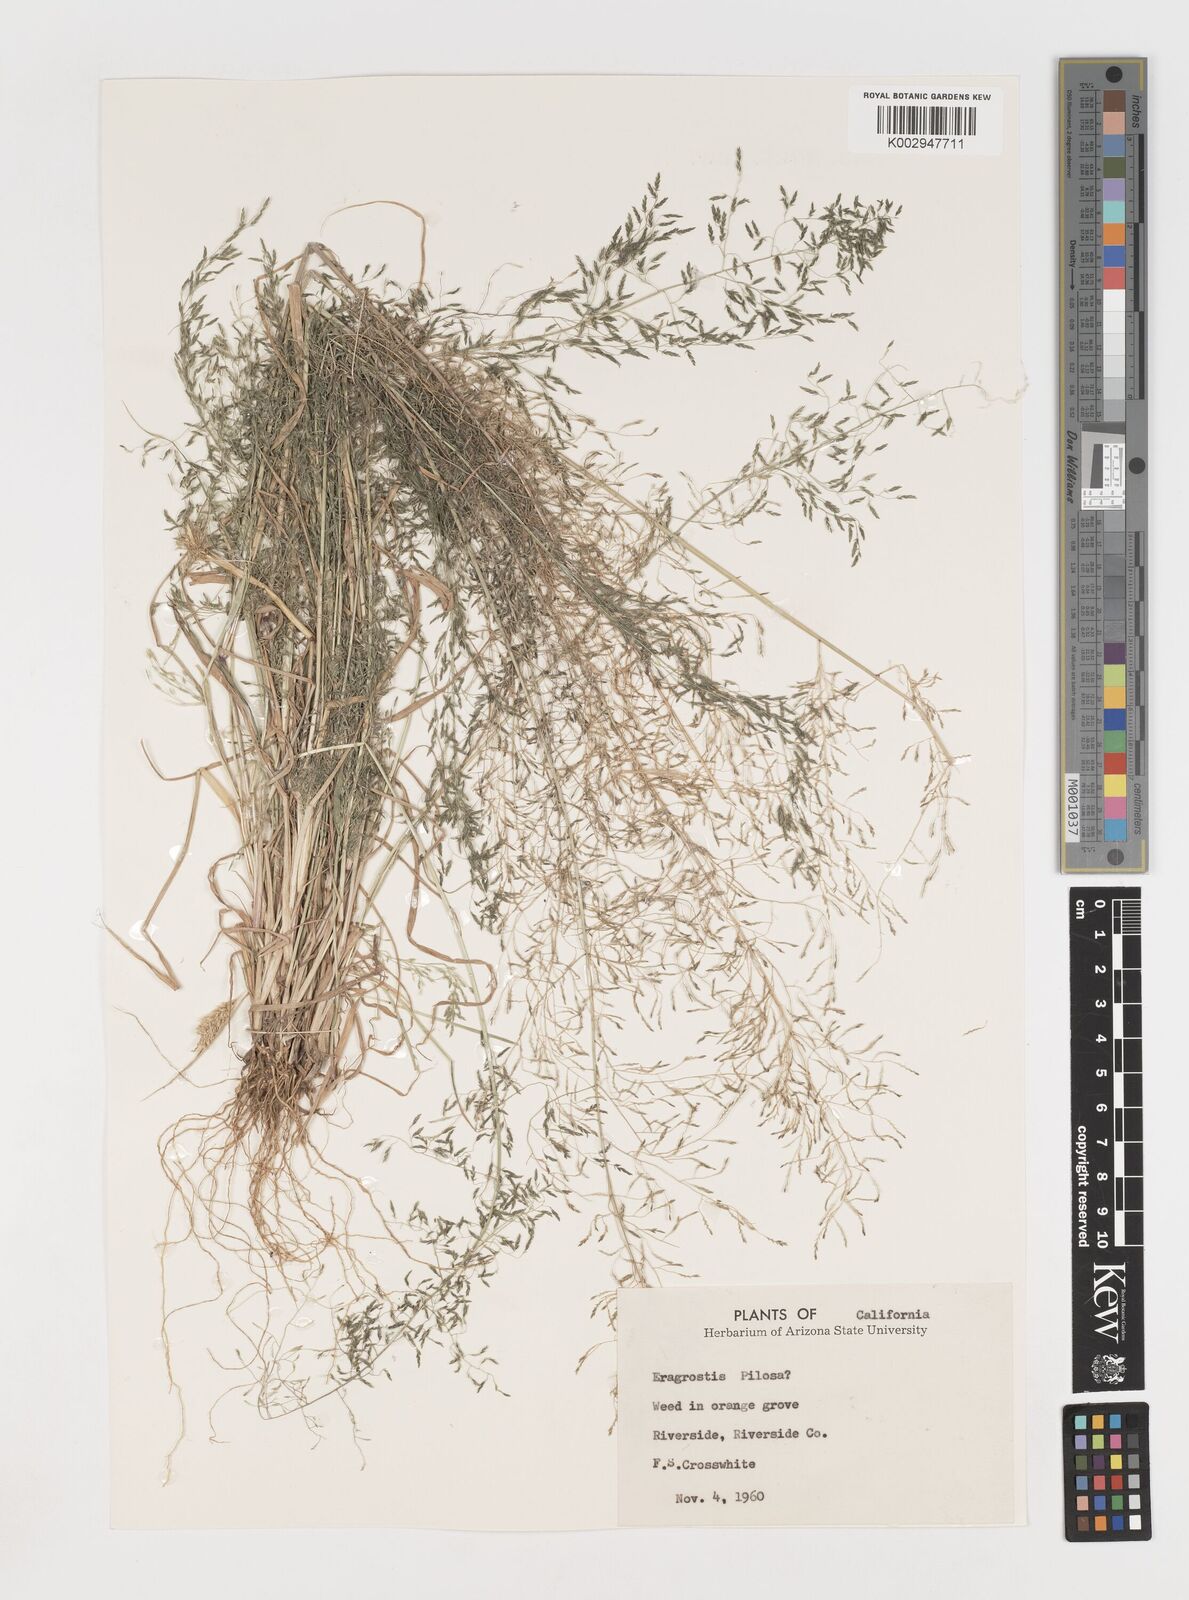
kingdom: Plantae
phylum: Tracheophyta
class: Liliopsida
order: Poales
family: Poaceae
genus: Eragrostis
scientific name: Eragrostis pilosa
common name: Indian lovegrass
